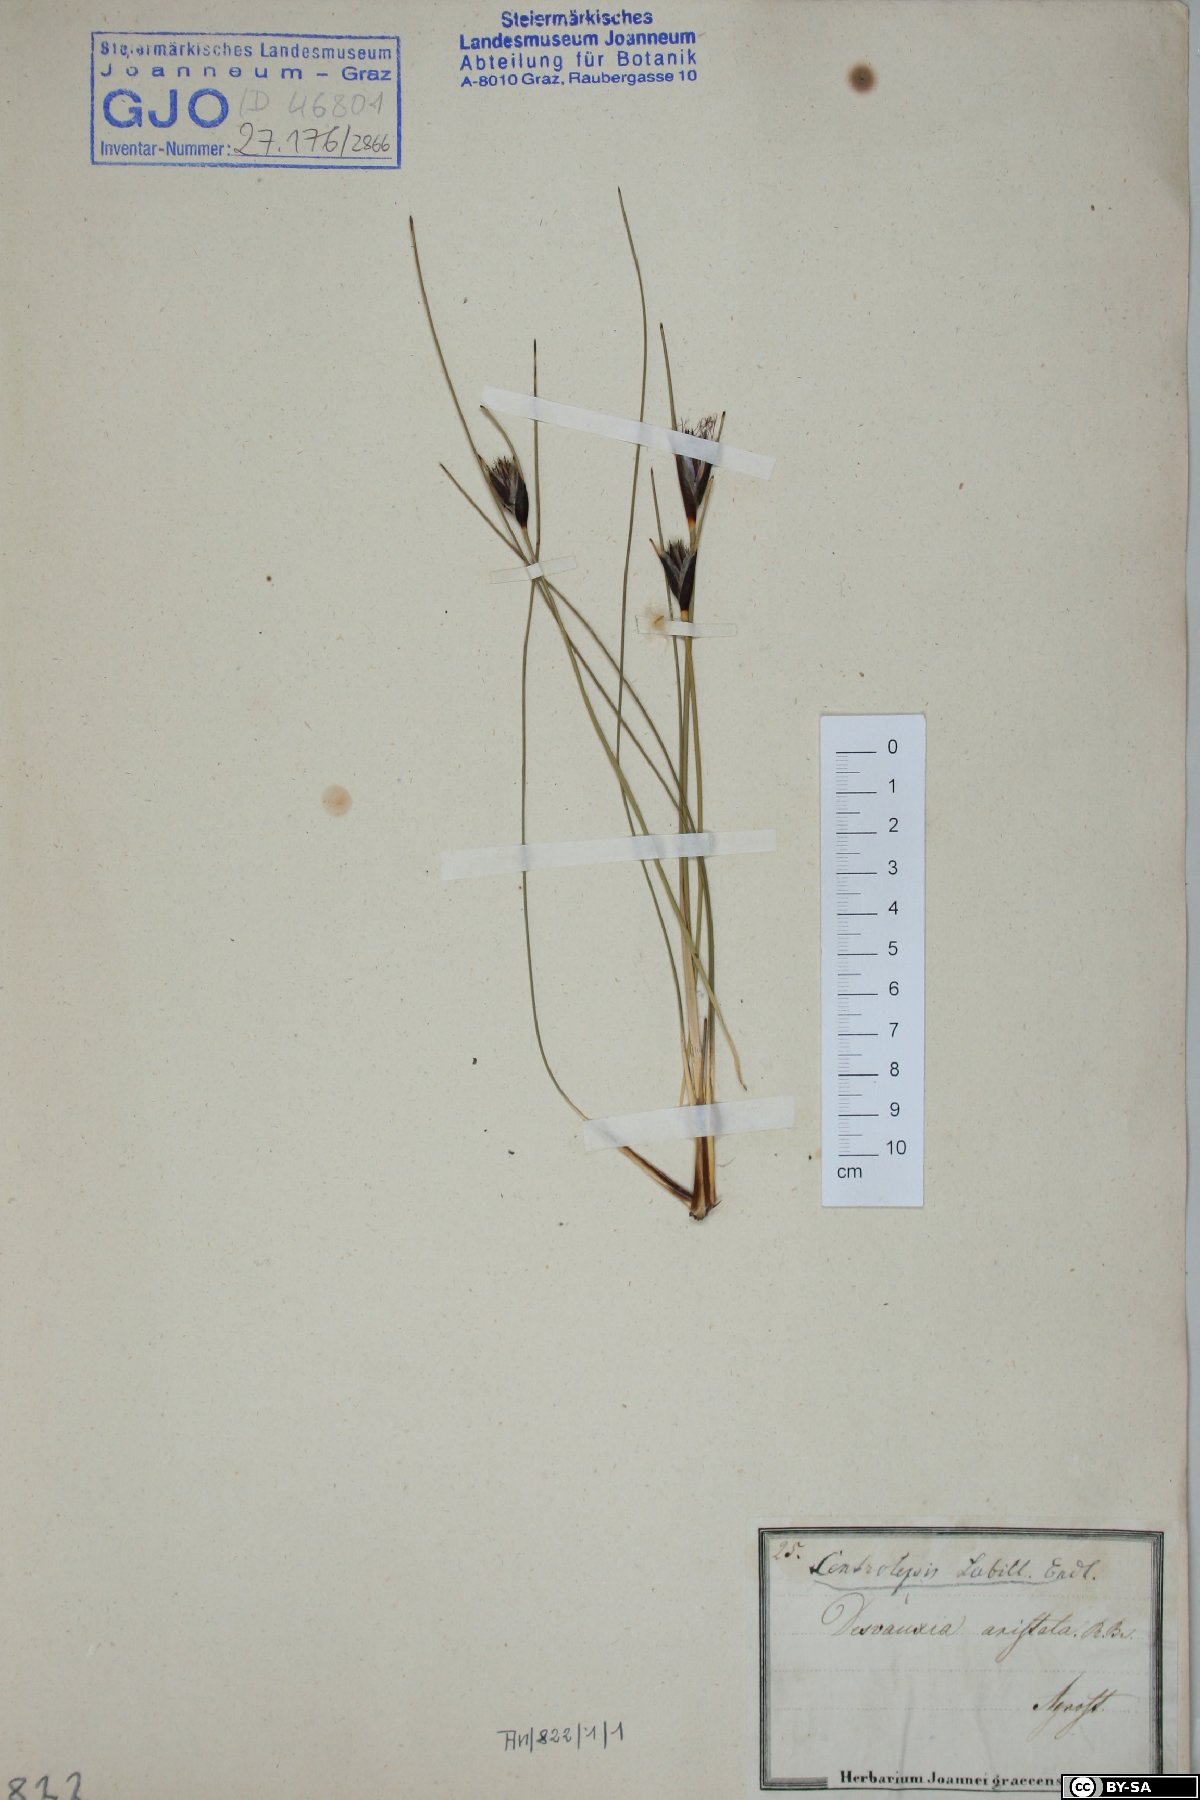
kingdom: Plantae
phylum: Tracheophyta
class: Liliopsida
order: Poales
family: Restionaceae
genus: Centrolepis
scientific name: Centrolepis aristata
